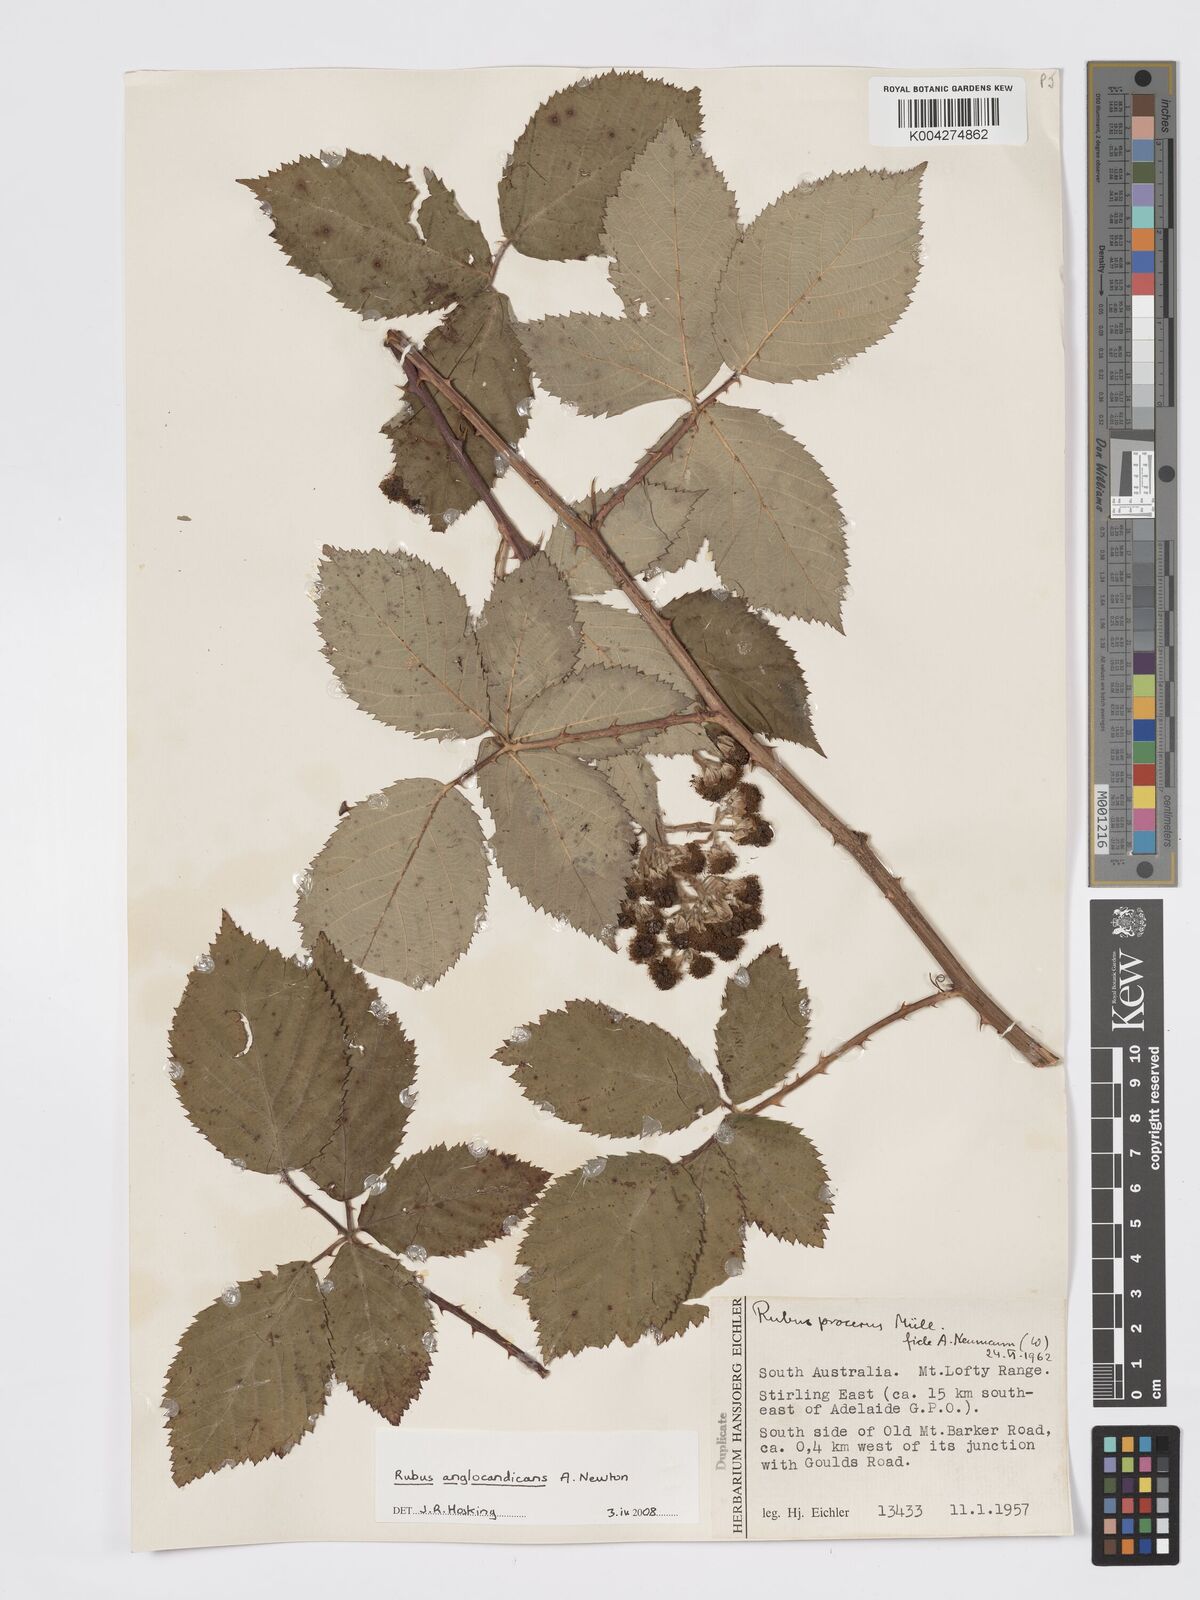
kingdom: Plantae
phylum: Tracheophyta
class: Magnoliopsida
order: Rosales
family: Rosaceae
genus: Rubus
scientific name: Rubus anglocandicans
